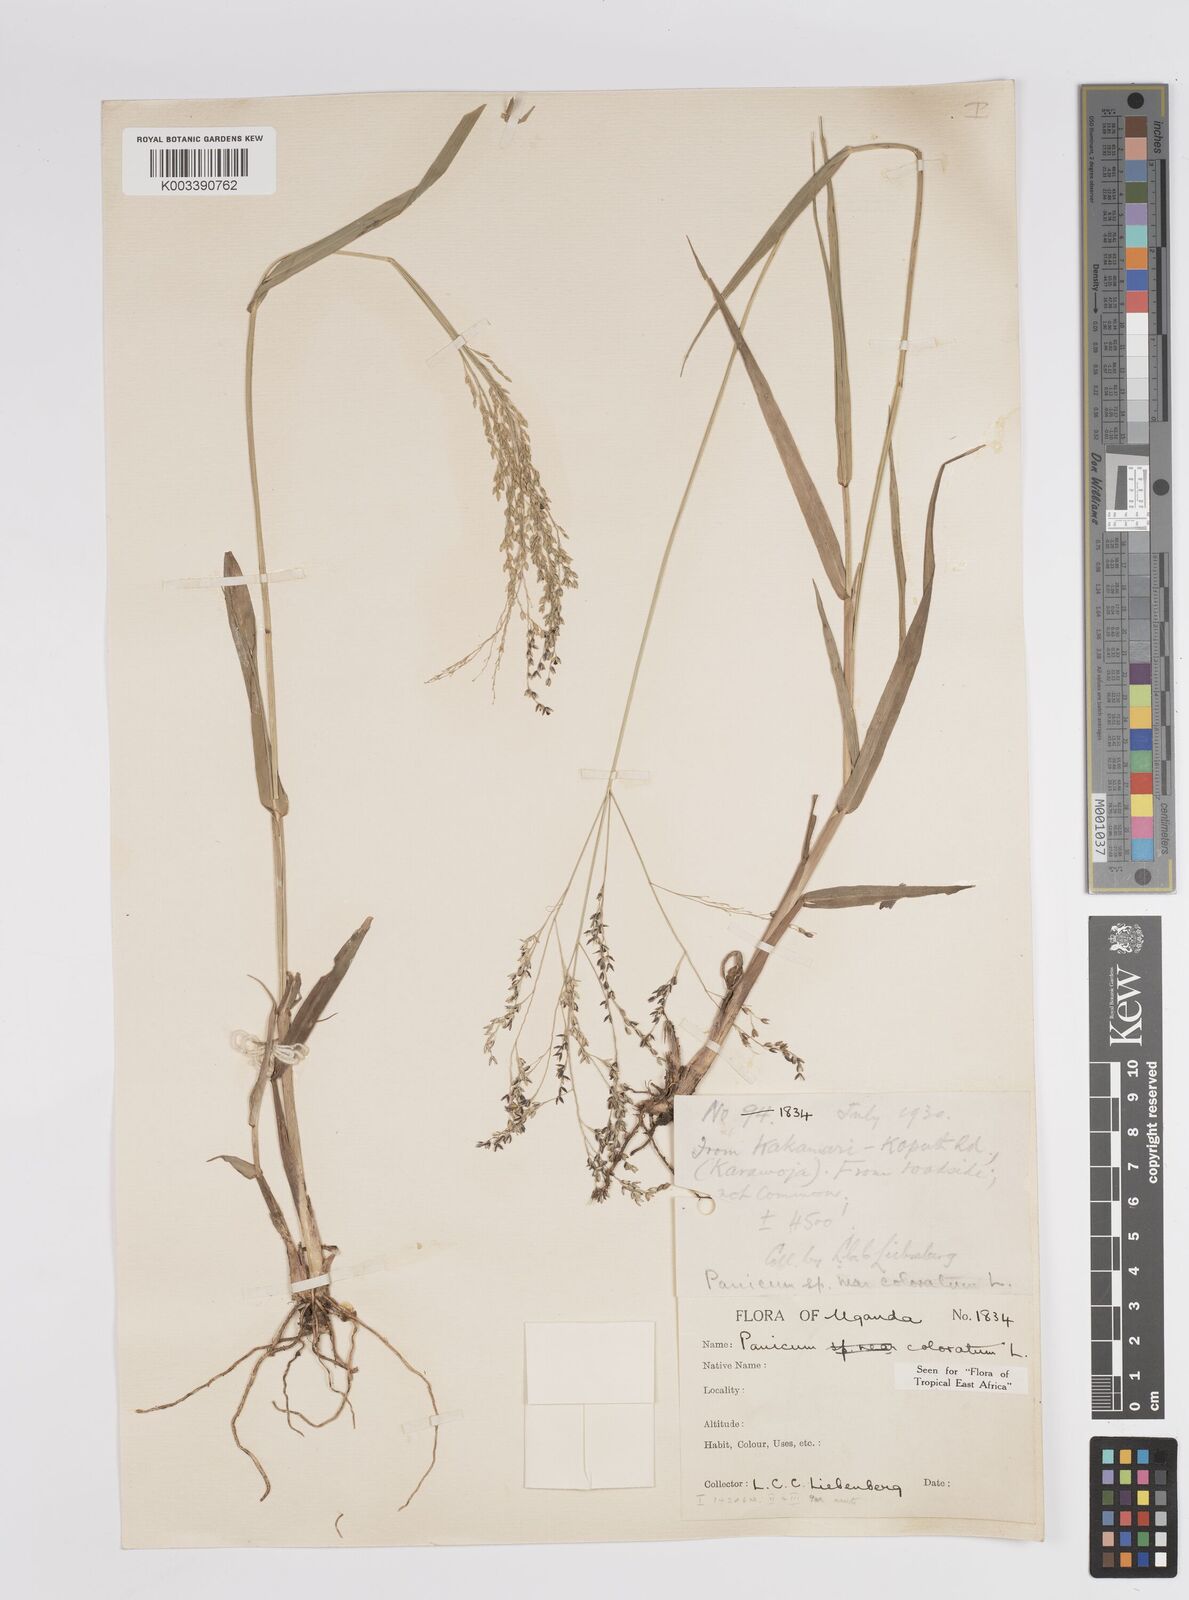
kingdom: Plantae
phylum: Tracheophyta
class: Liliopsida
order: Poales
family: Poaceae
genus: Panicum
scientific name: Panicum coloratum
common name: Kleingrass
